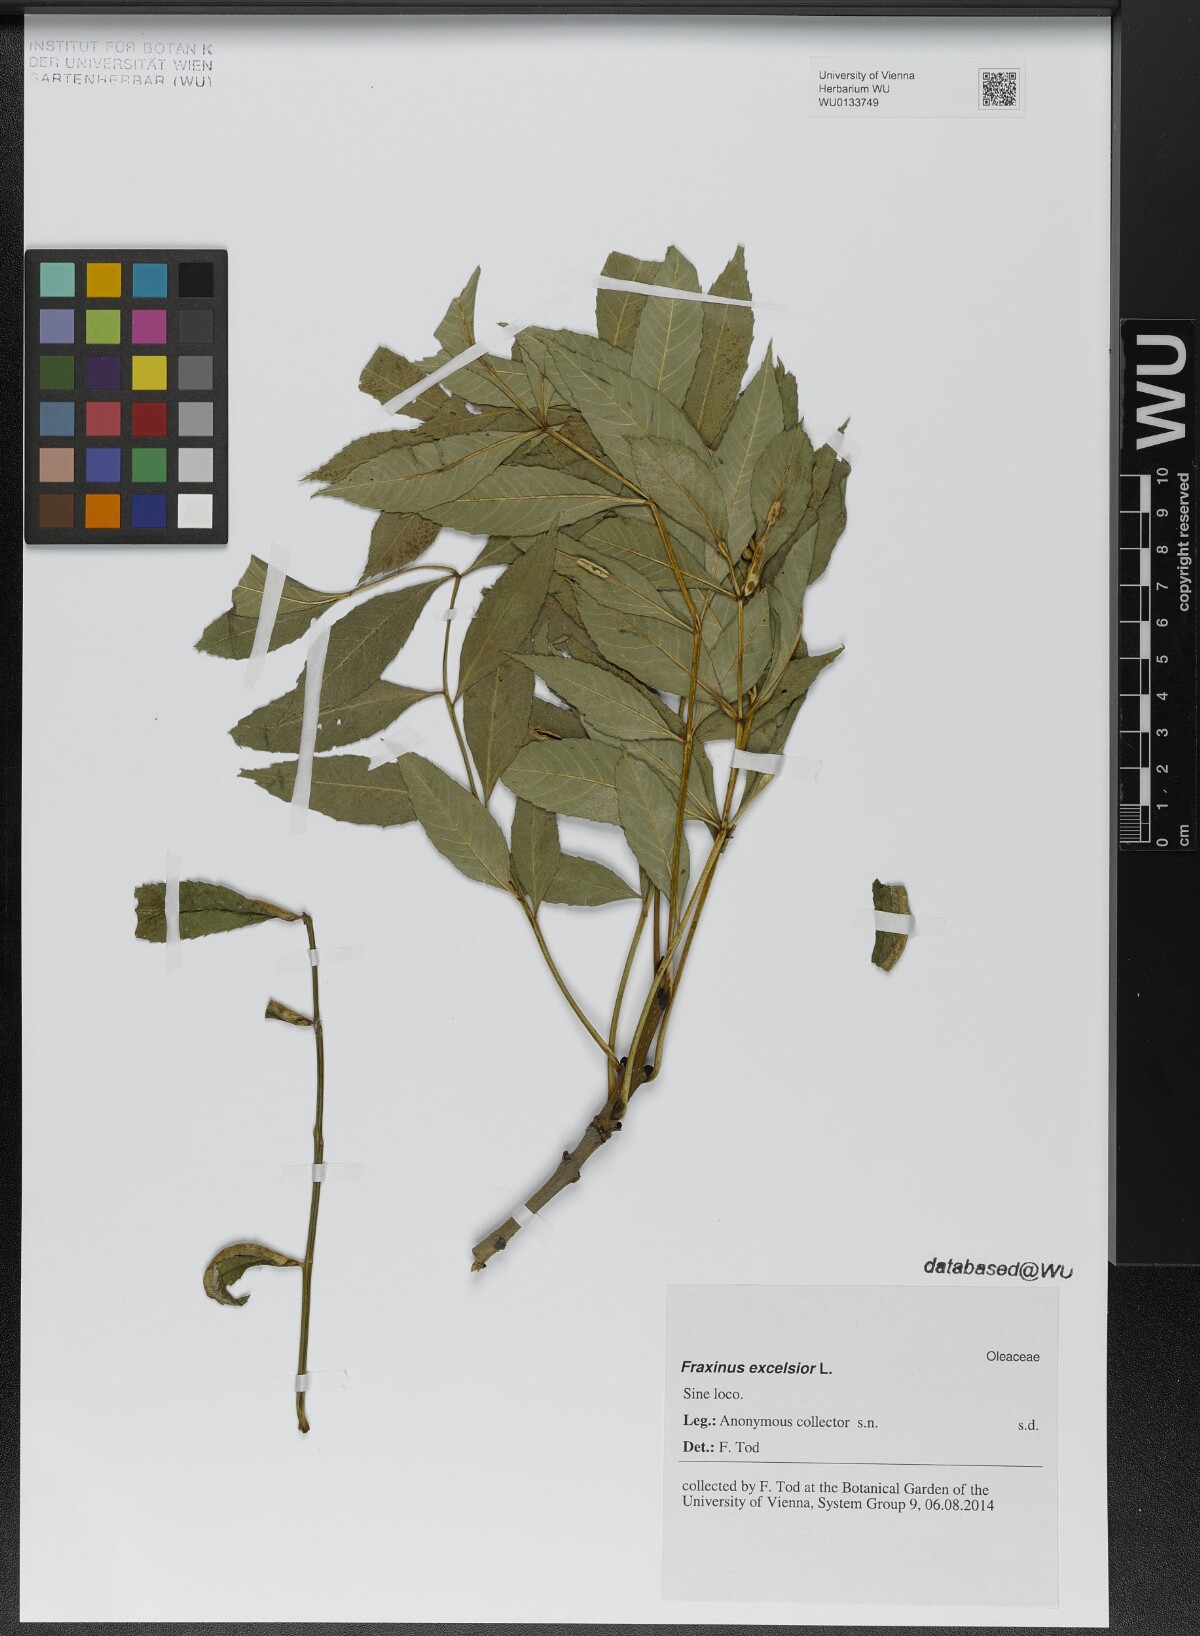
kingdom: Plantae
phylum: Tracheophyta
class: Magnoliopsida
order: Lamiales
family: Oleaceae
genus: Fraxinus
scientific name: Fraxinus excelsior
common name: European ash
